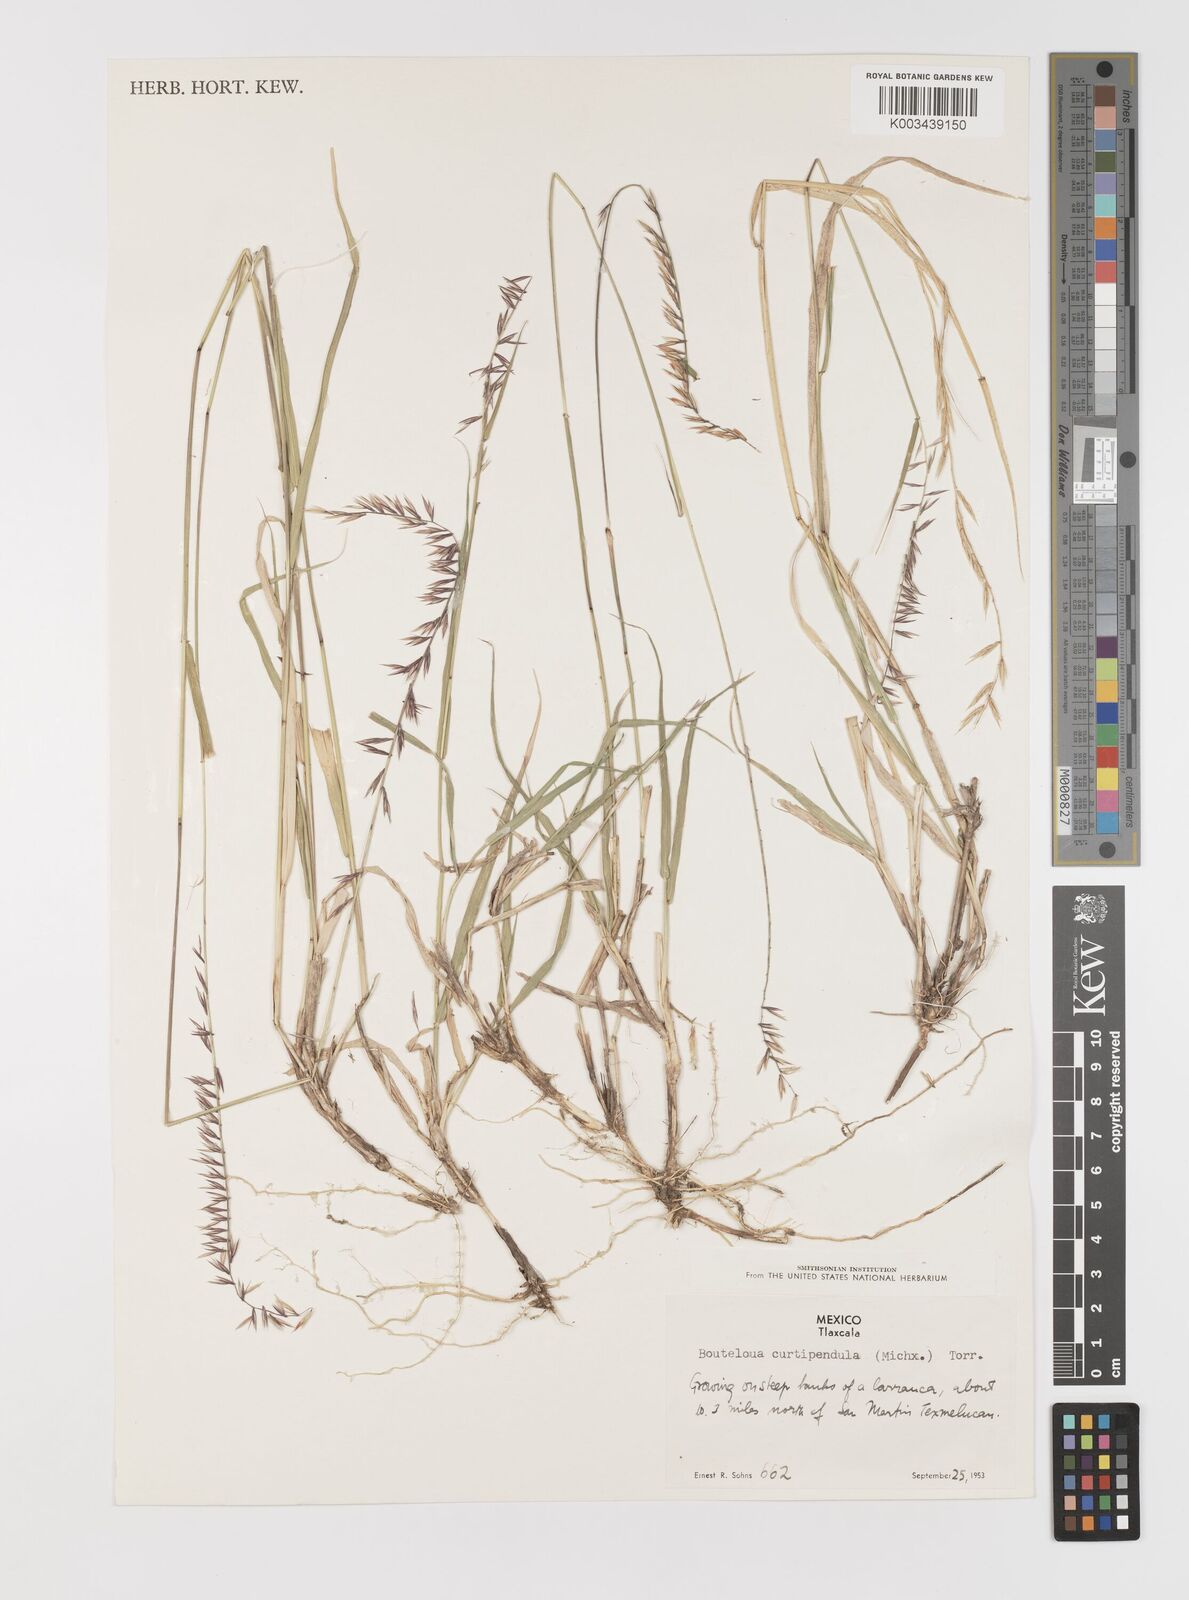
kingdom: Plantae
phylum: Tracheophyta
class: Liliopsida
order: Poales
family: Poaceae
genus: Bouteloua
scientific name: Bouteloua curtipendula
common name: Side-oats grama
